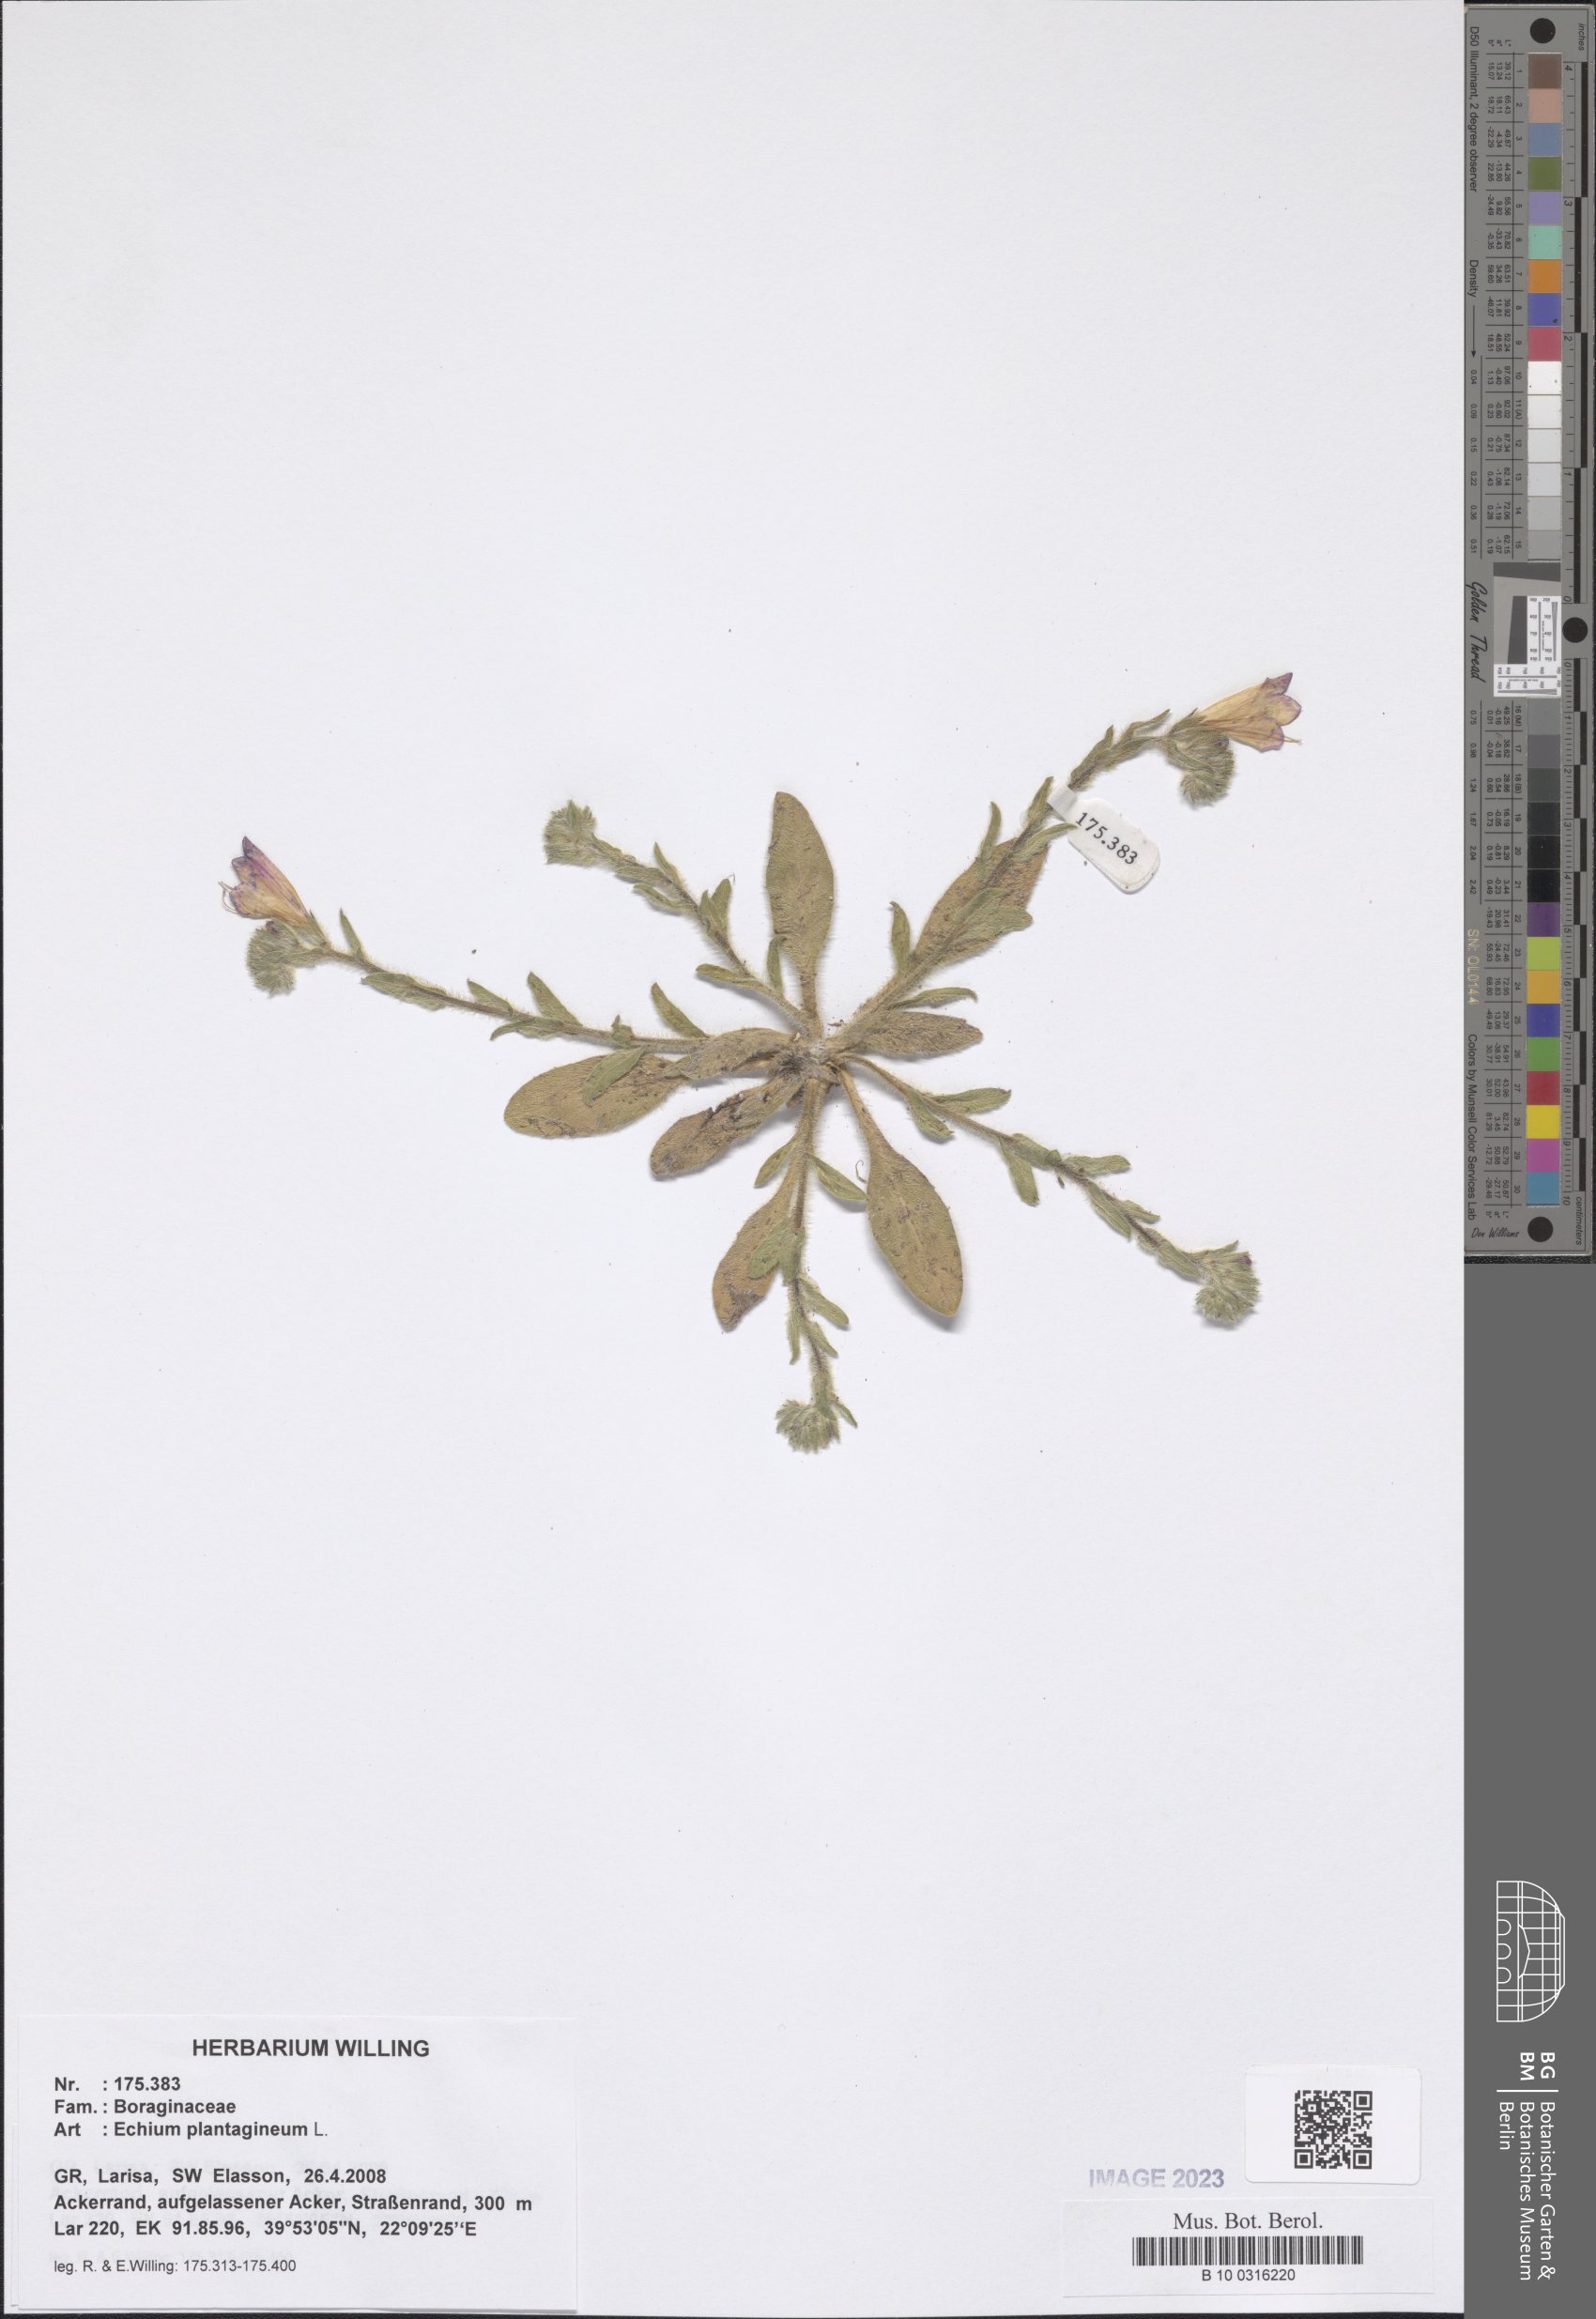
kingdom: Plantae
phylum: Tracheophyta
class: Magnoliopsida
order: Boraginales
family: Boraginaceae
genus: Echium
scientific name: Echium plantagineum
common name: Purple viper's-bugloss
